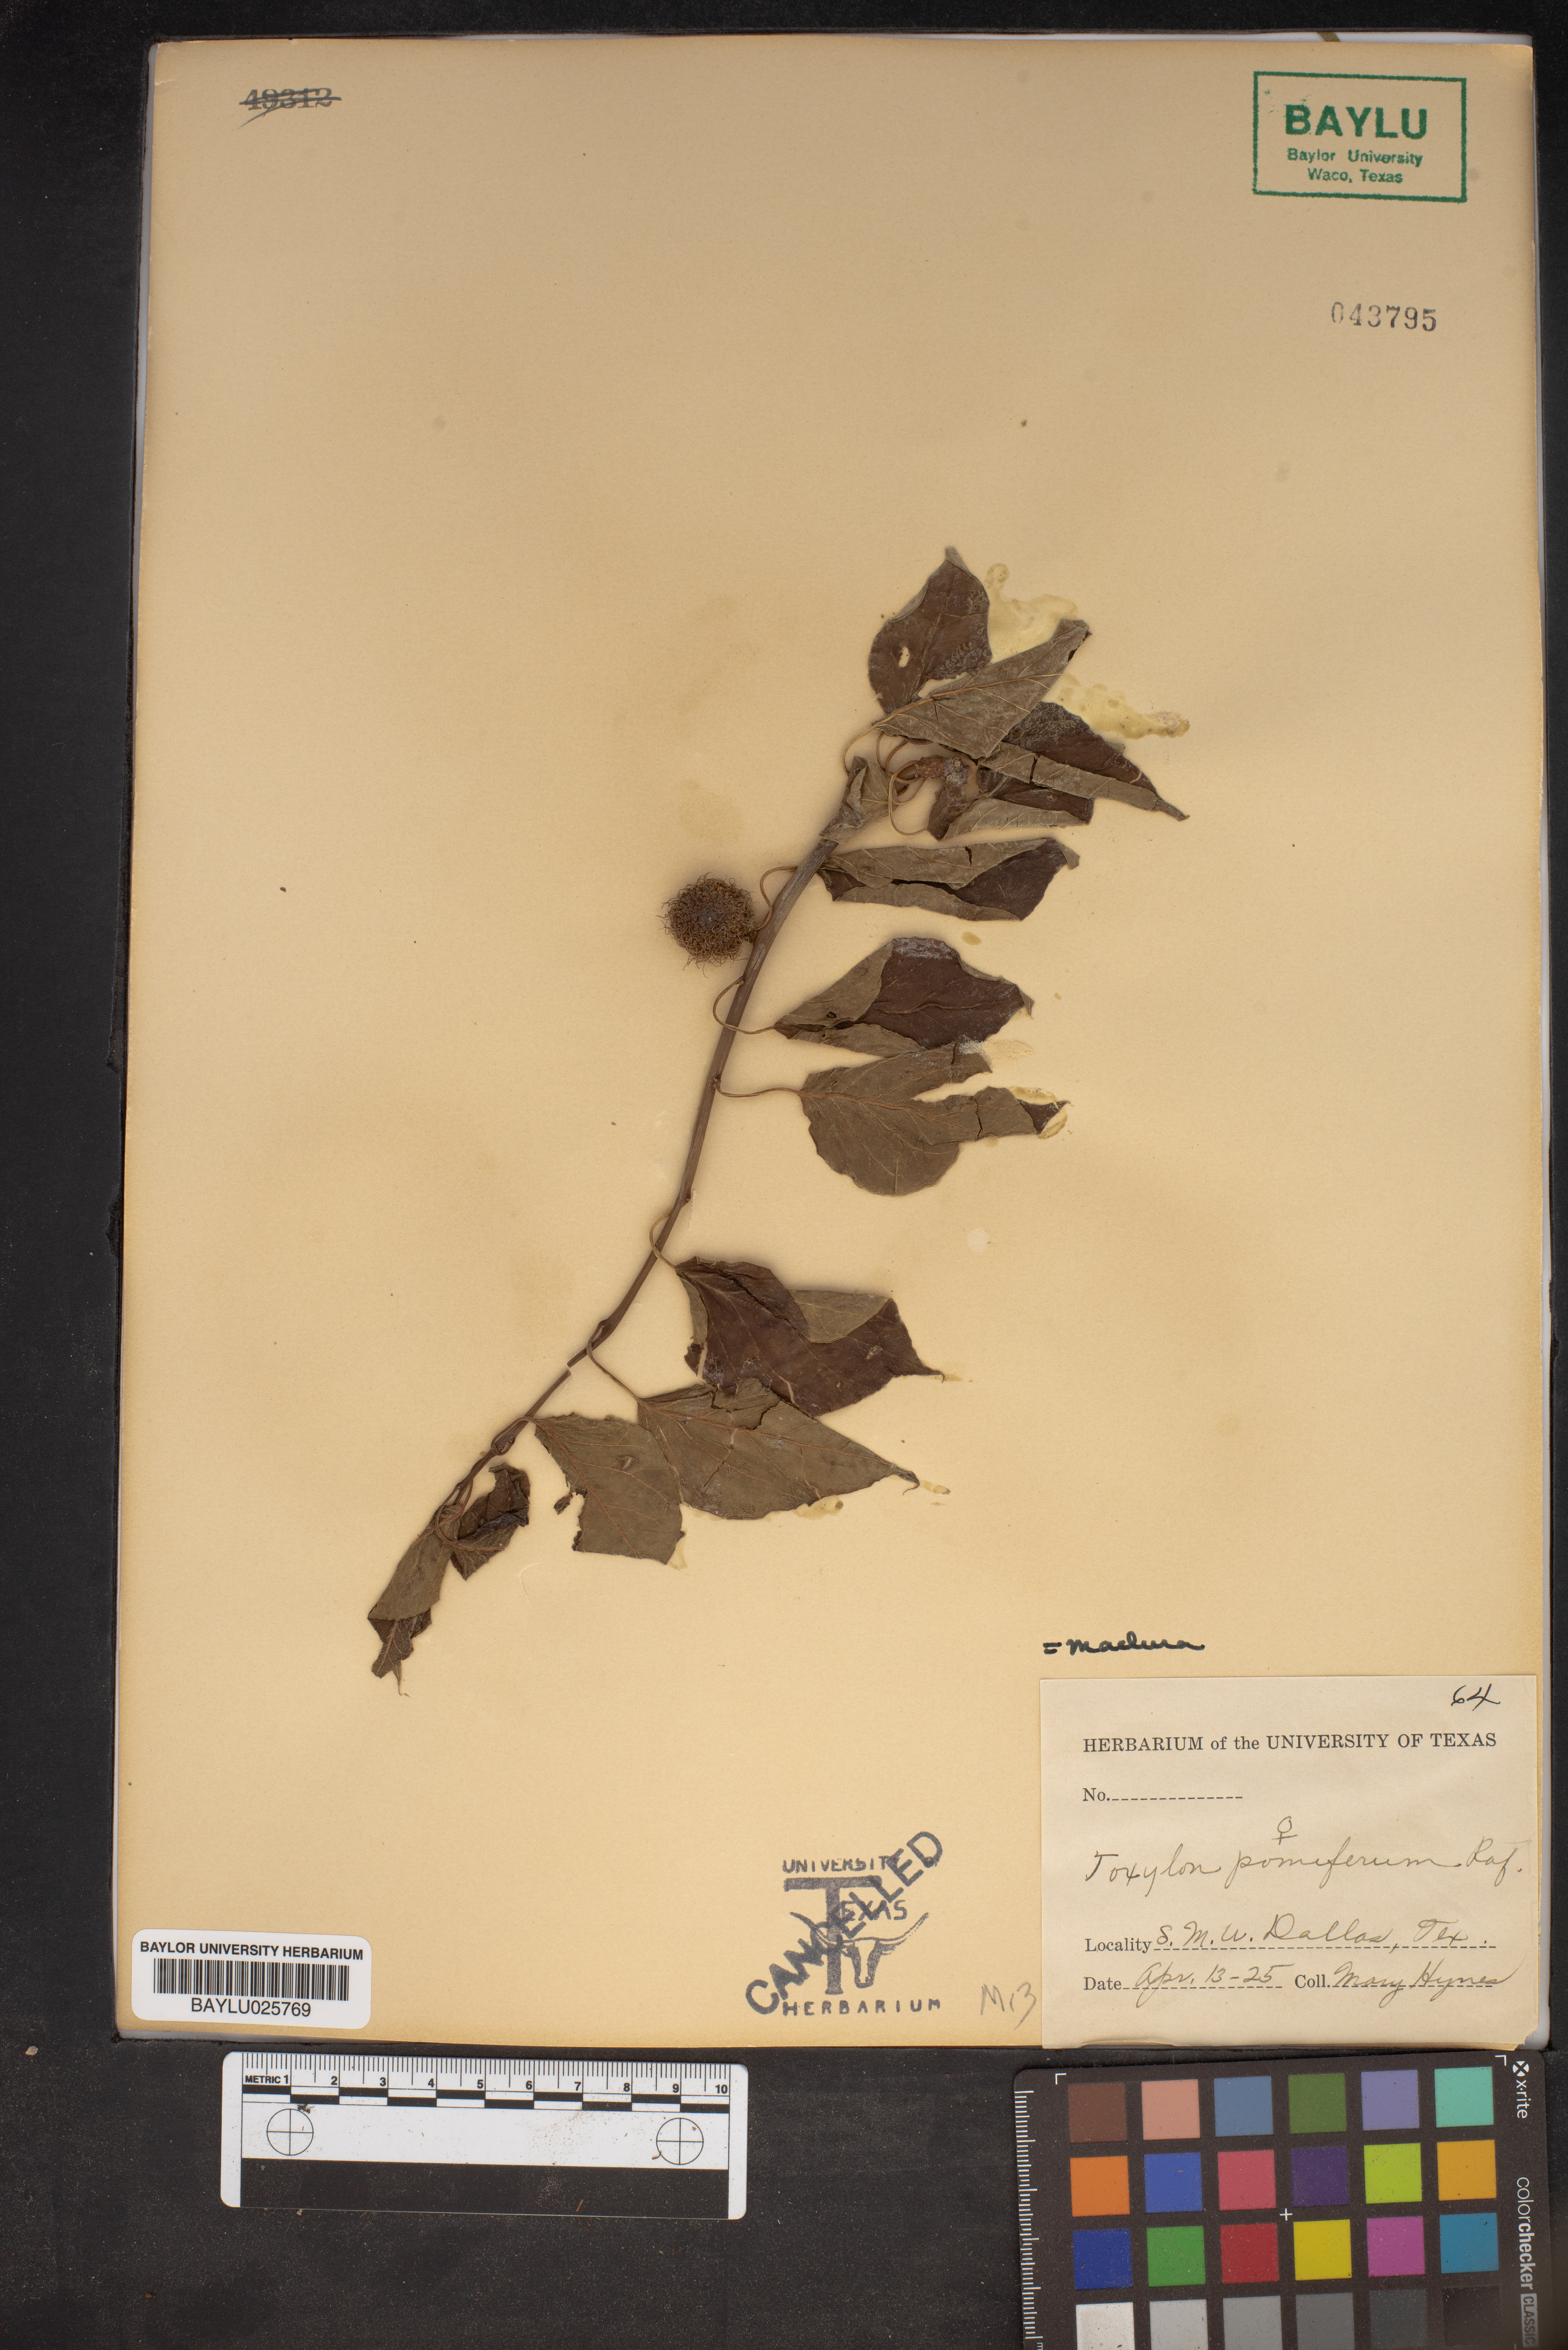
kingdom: Plantae
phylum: Tracheophyta
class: Magnoliopsida
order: Rosales
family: Moraceae
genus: Maclura
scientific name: Maclura pomifera
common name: Osage-orange
